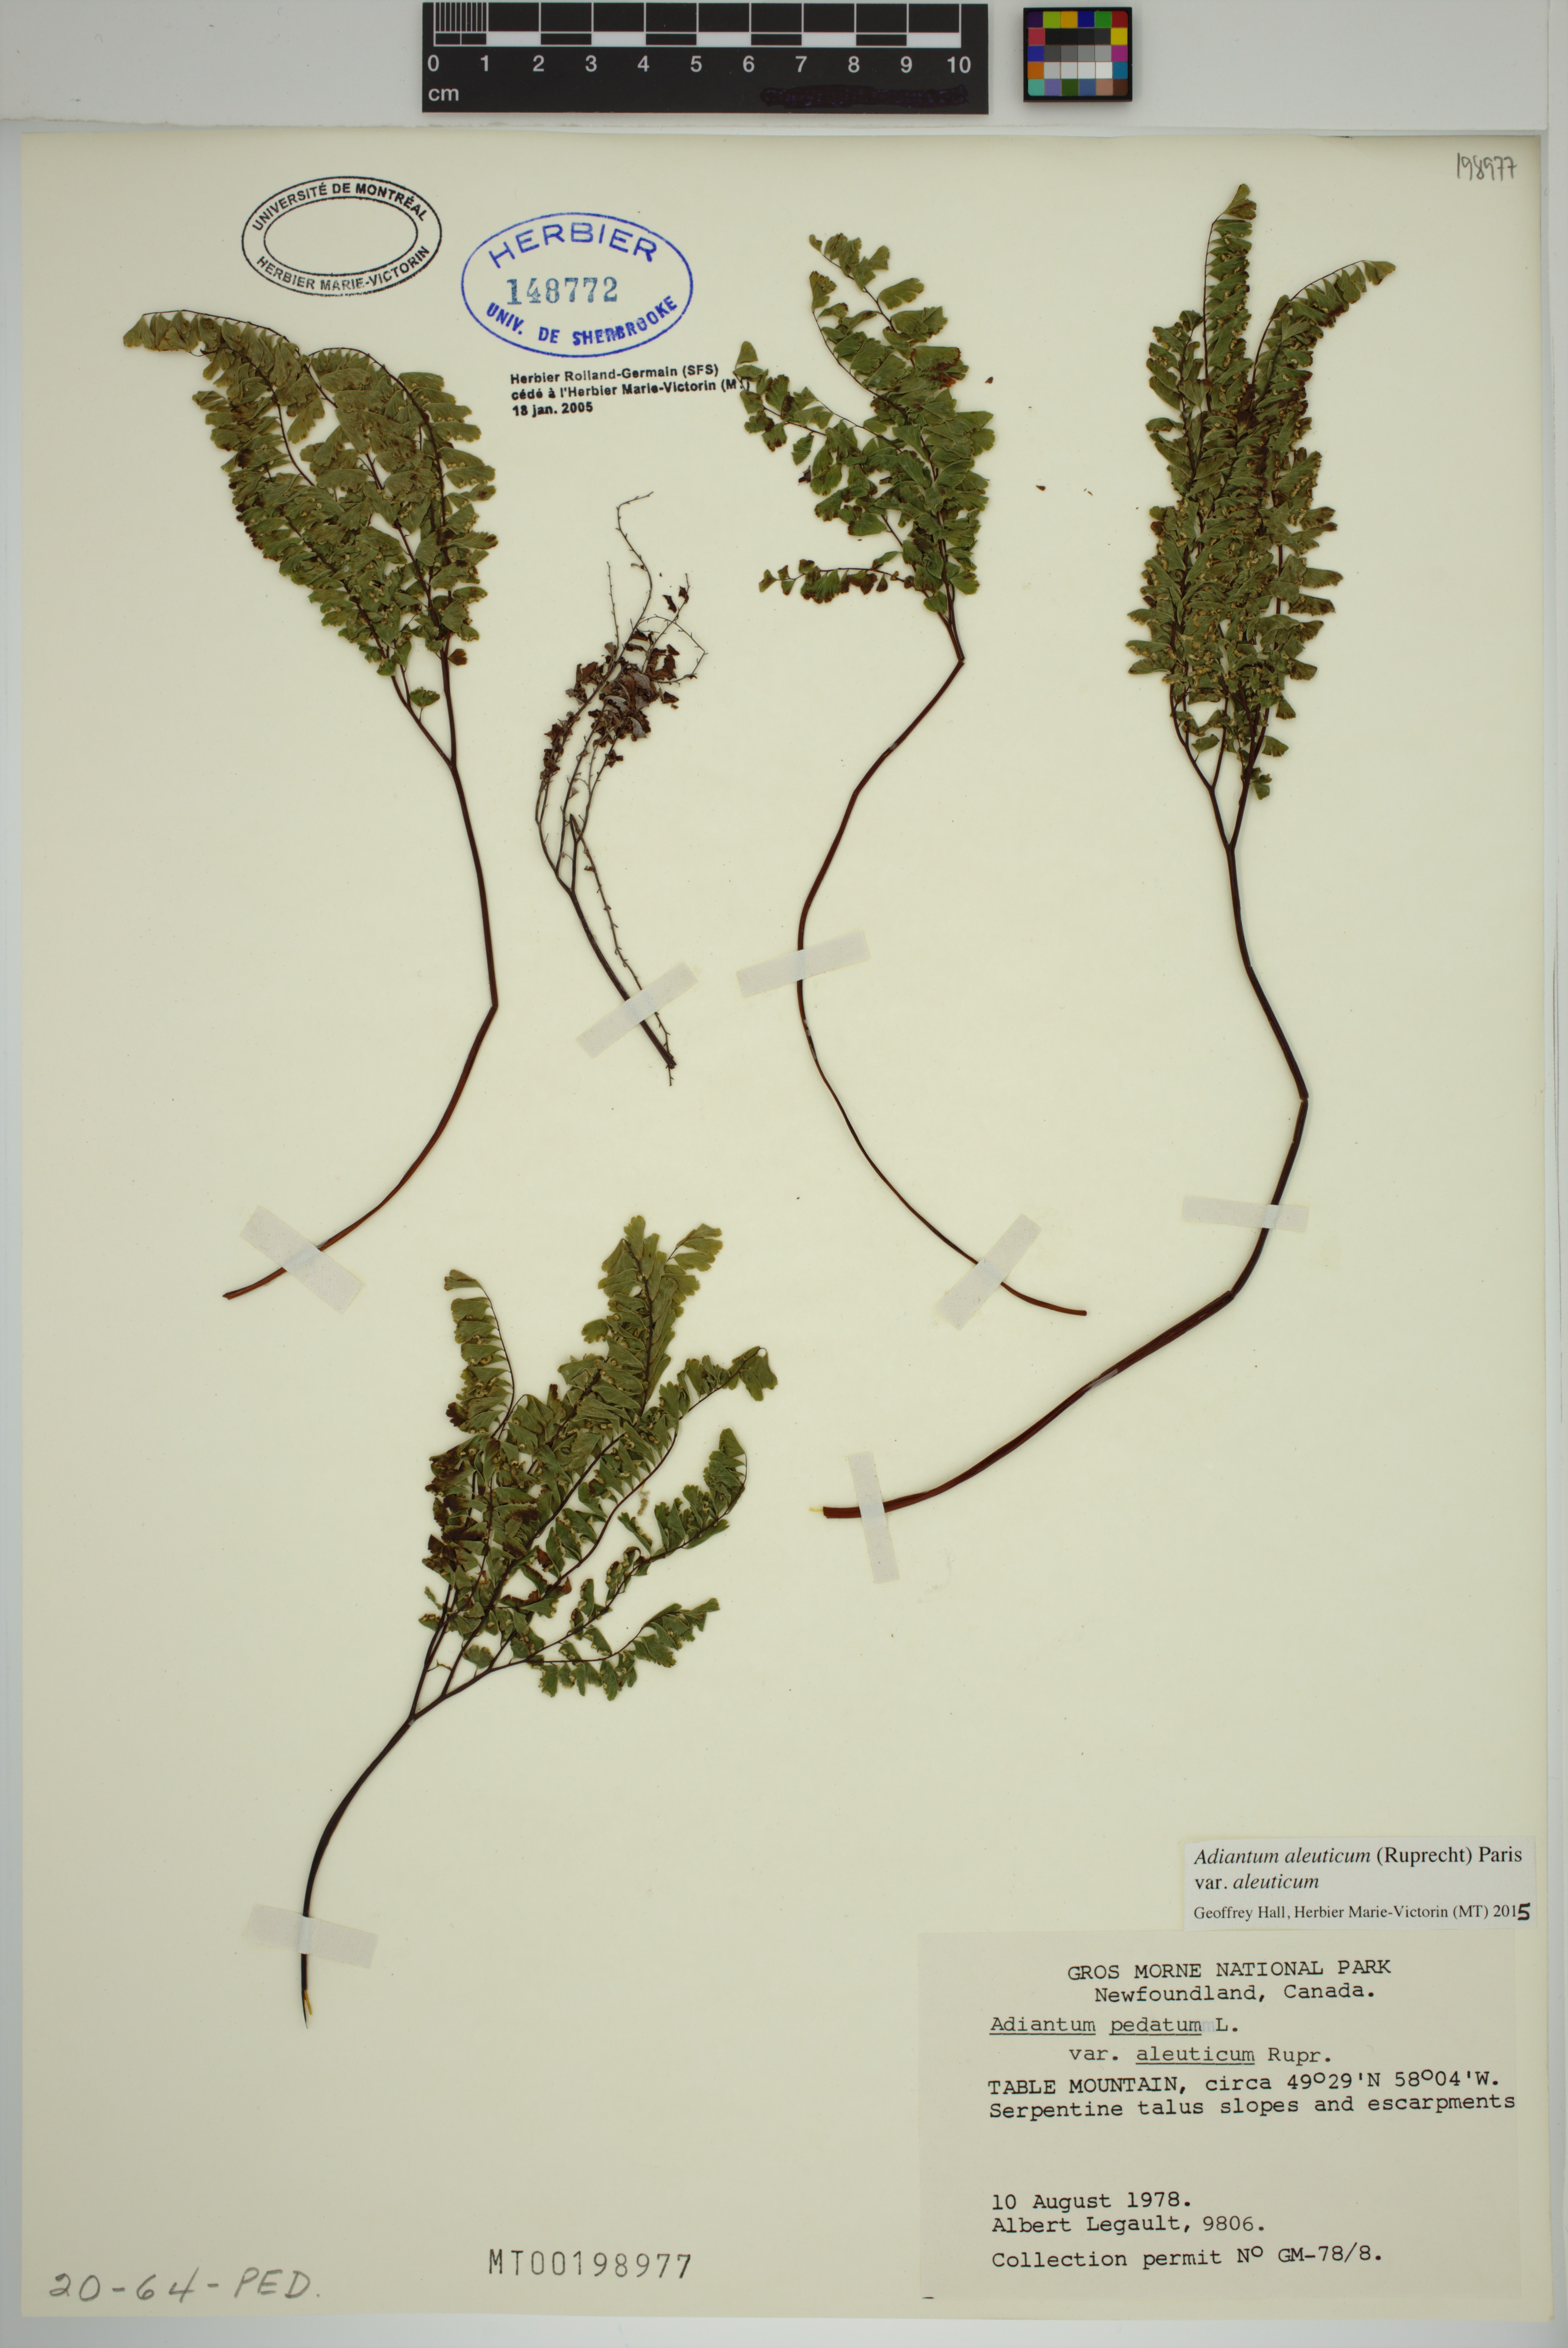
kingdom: Plantae
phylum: Tracheophyta
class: Polypodiopsida
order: Polypodiales
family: Pteridaceae
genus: Adiantum
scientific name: Adiantum aleuticum
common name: Aleutian maidenhair fern
